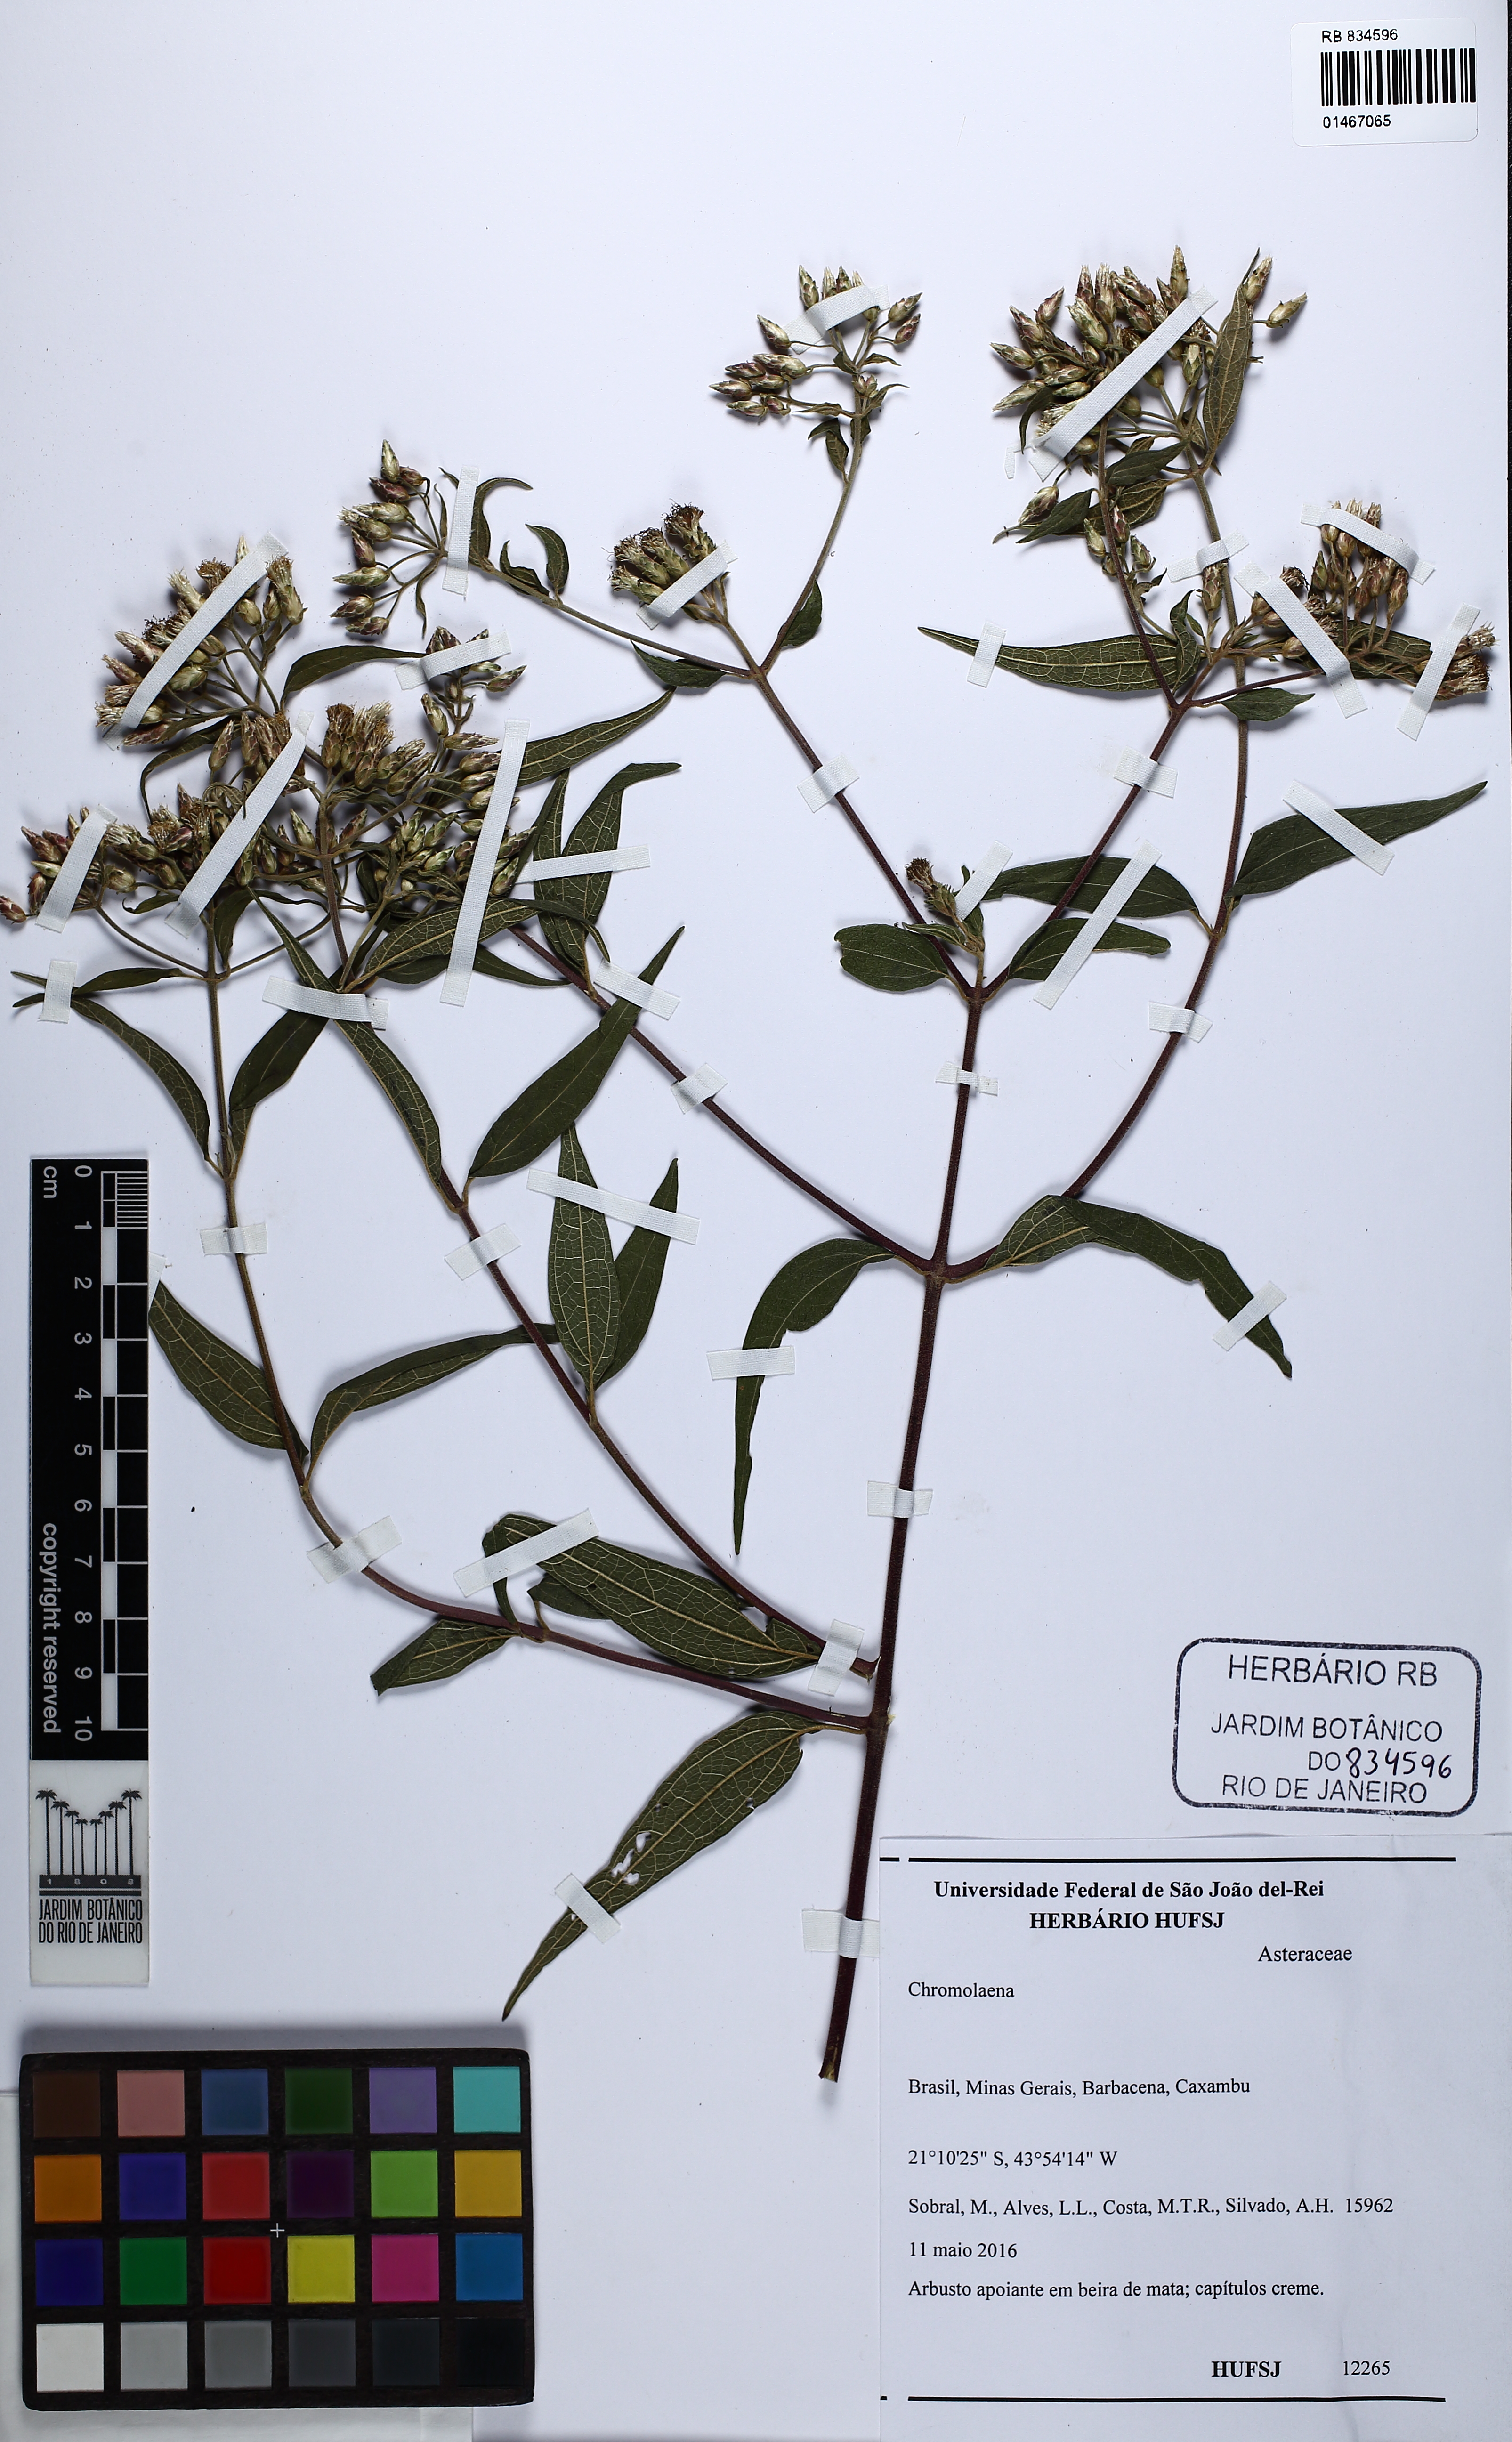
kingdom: Plantae
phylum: Tracheophyta
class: Magnoliopsida
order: Asterales
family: Asteraceae
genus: Chromolaena
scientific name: Chromolaena
